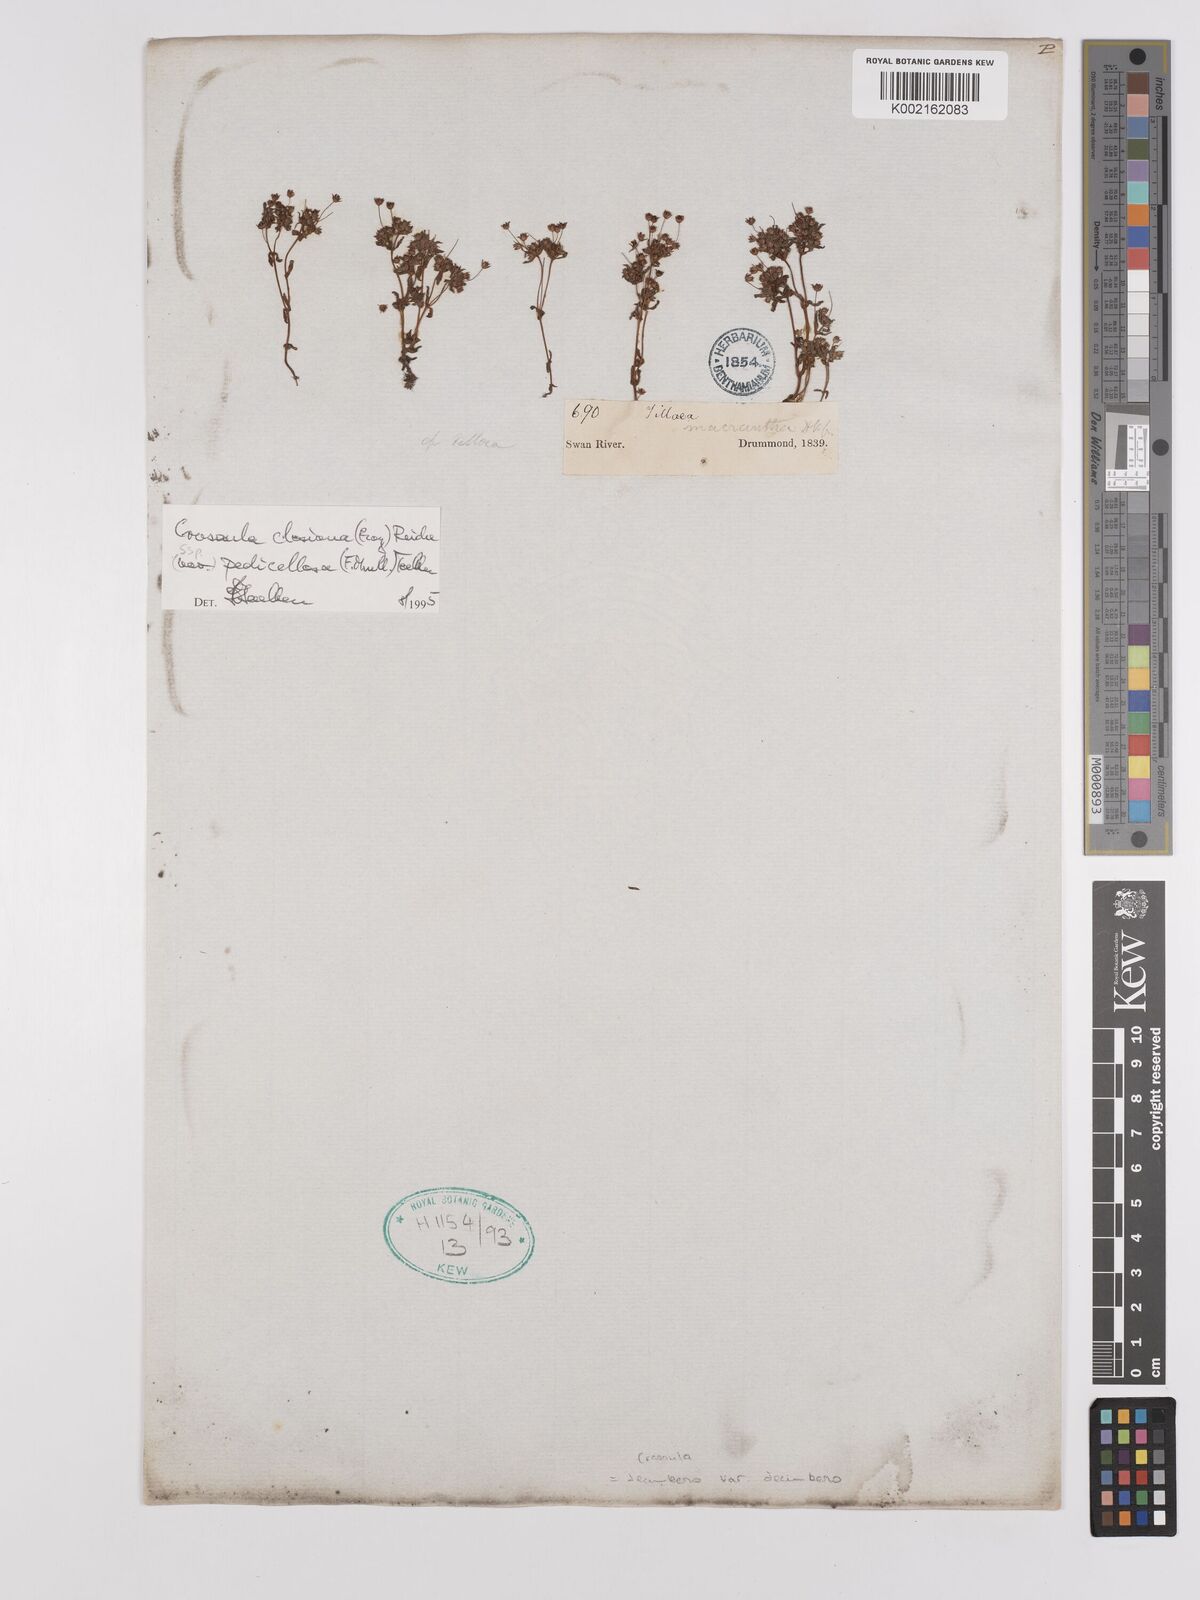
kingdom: Plantae
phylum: Tracheophyta
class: Magnoliopsida
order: Saxifragales
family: Crassulaceae
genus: Crassula
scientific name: Crassula closiana
